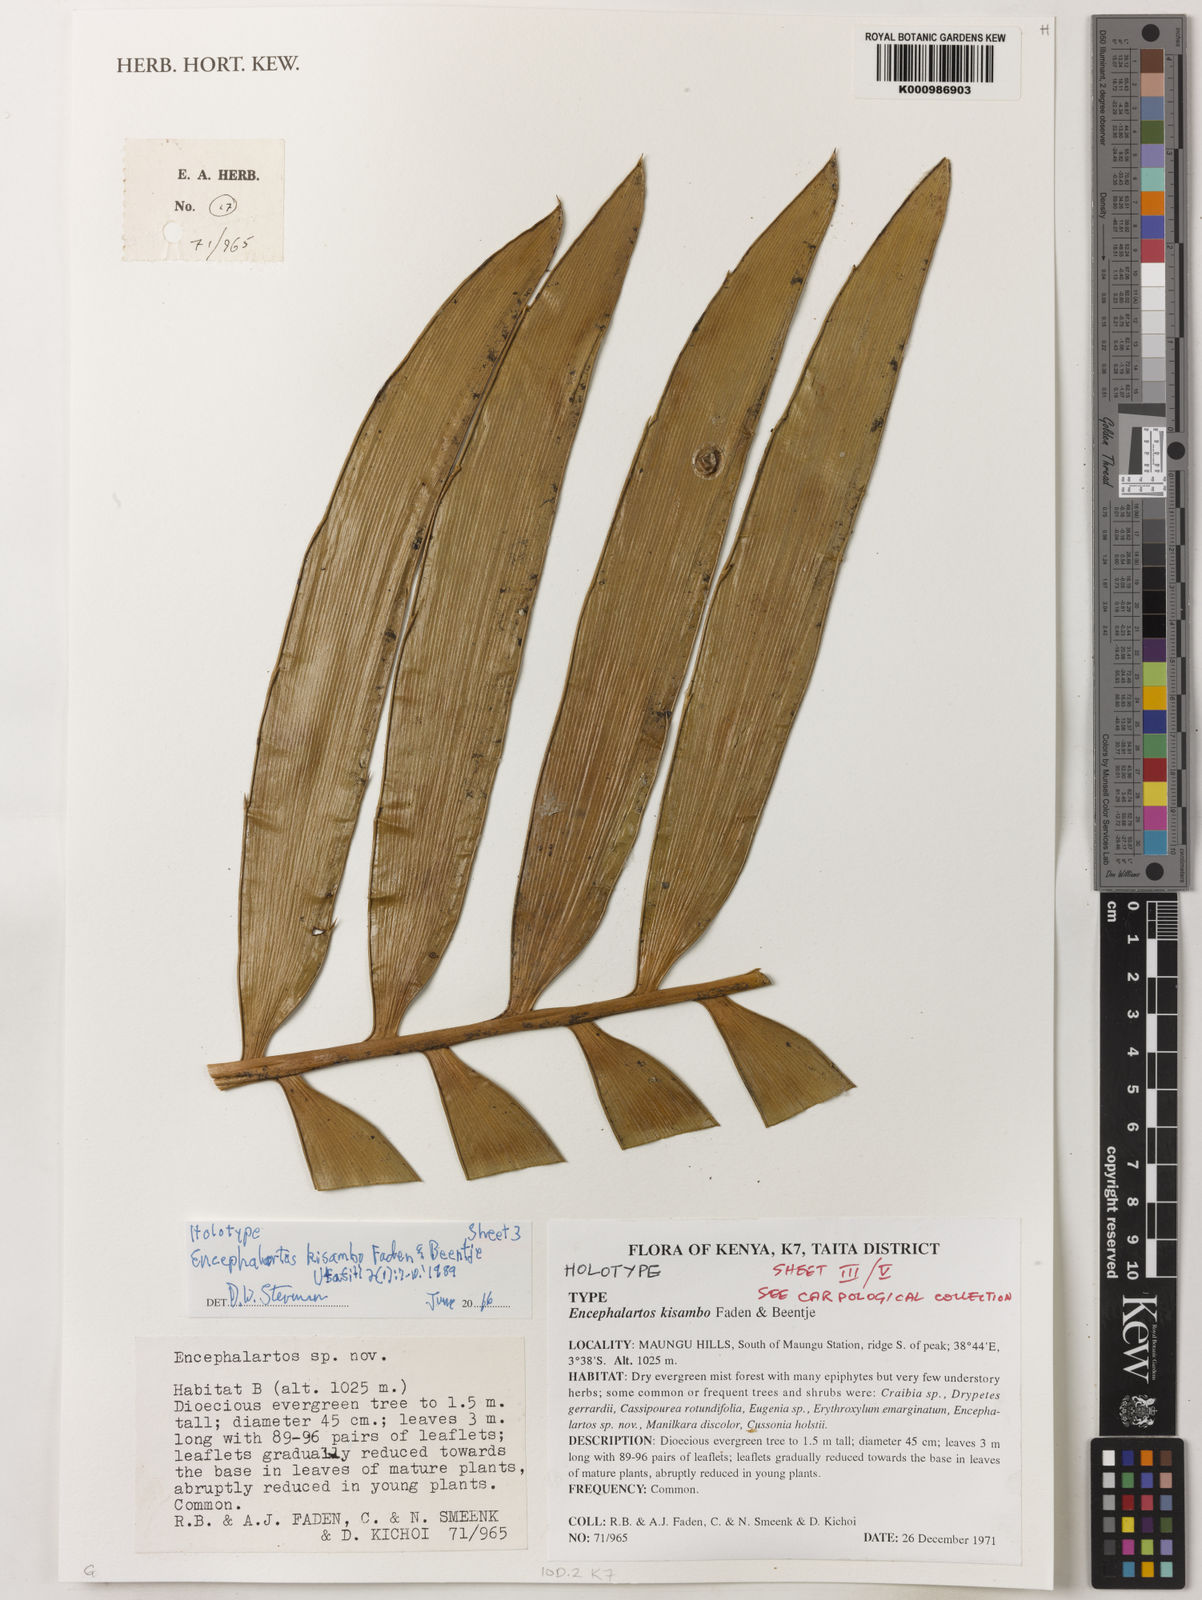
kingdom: Plantae
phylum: Tracheophyta
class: Cycadopsida
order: Cycadales
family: Zamiaceae
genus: Encephalartos
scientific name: Encephalartos kisambo
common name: Voi cycad
